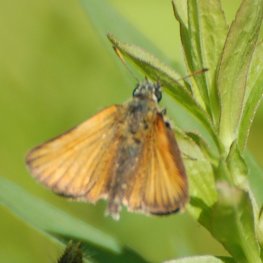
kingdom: Animalia
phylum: Arthropoda
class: Insecta
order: Lepidoptera
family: Hesperiidae
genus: Thymelicus
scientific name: Thymelicus lineola
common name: European Skipper
